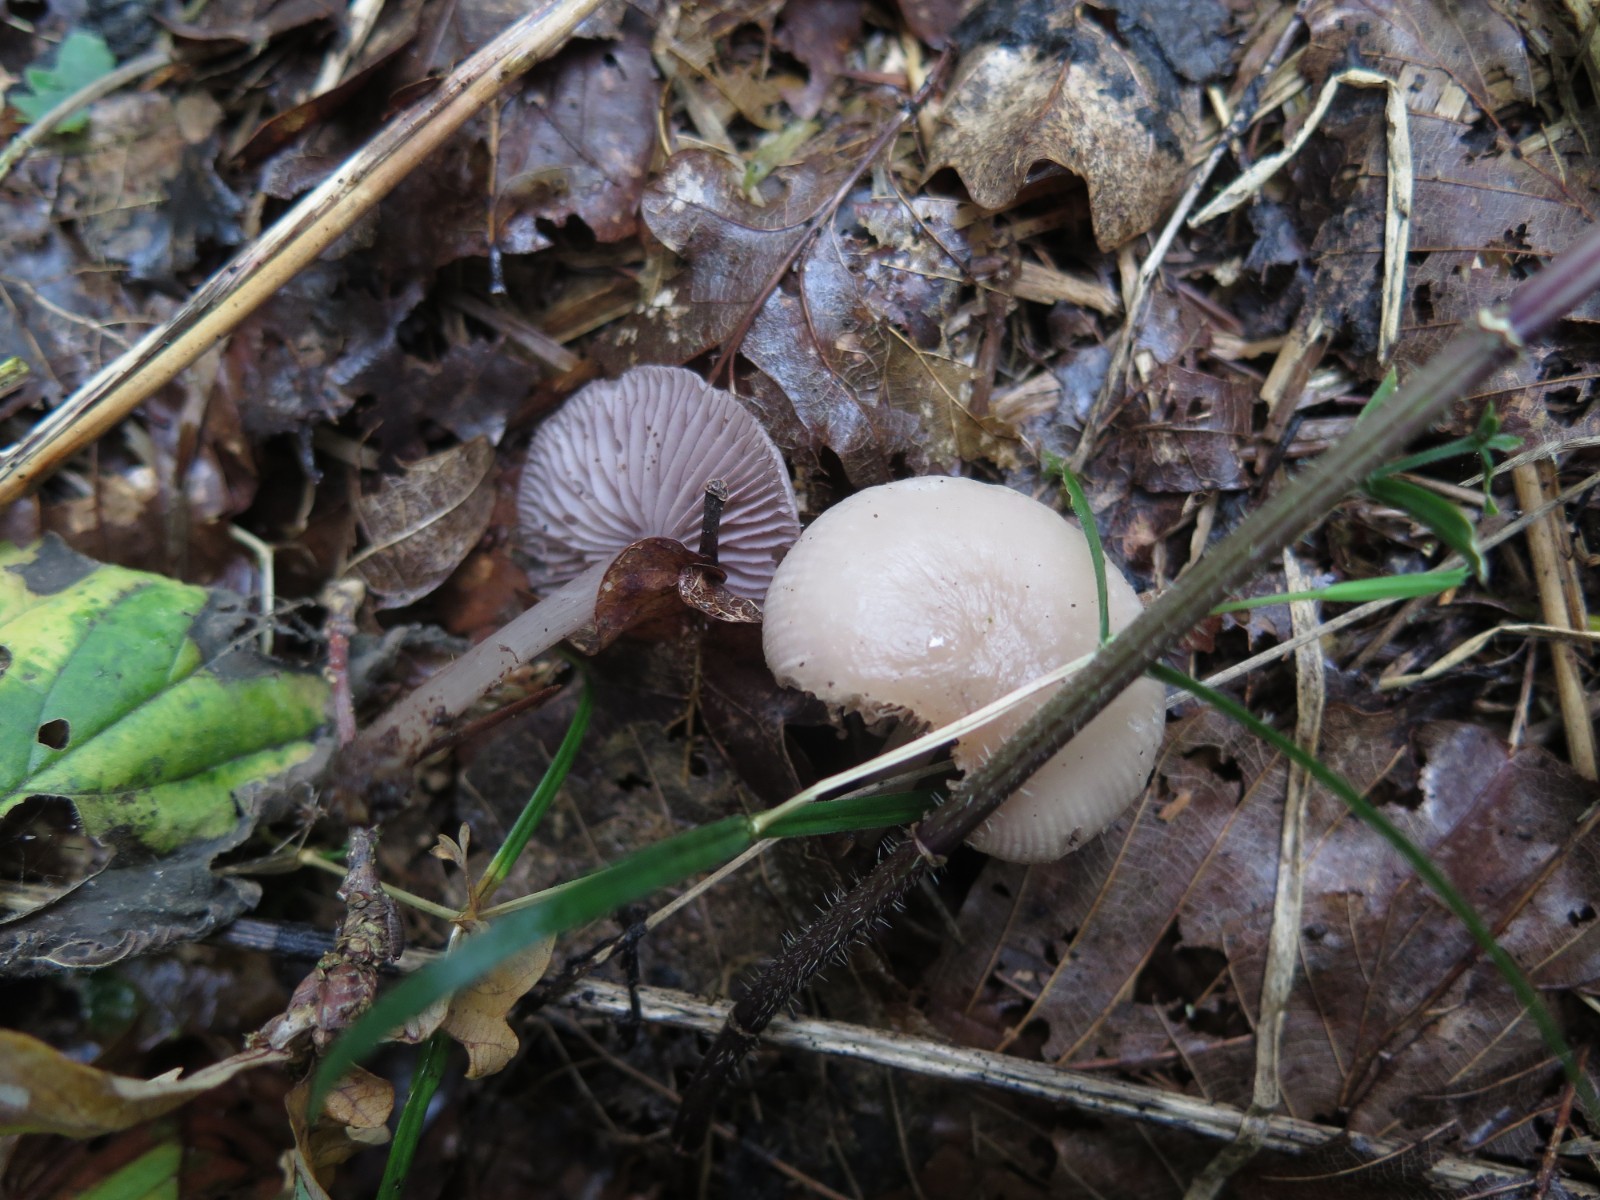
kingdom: Fungi
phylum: Basidiomycota
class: Agaricomycetes
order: Agaricales
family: Mycenaceae
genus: Mycena
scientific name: Mycena pelianthina
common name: mørkbladet huesvamp
